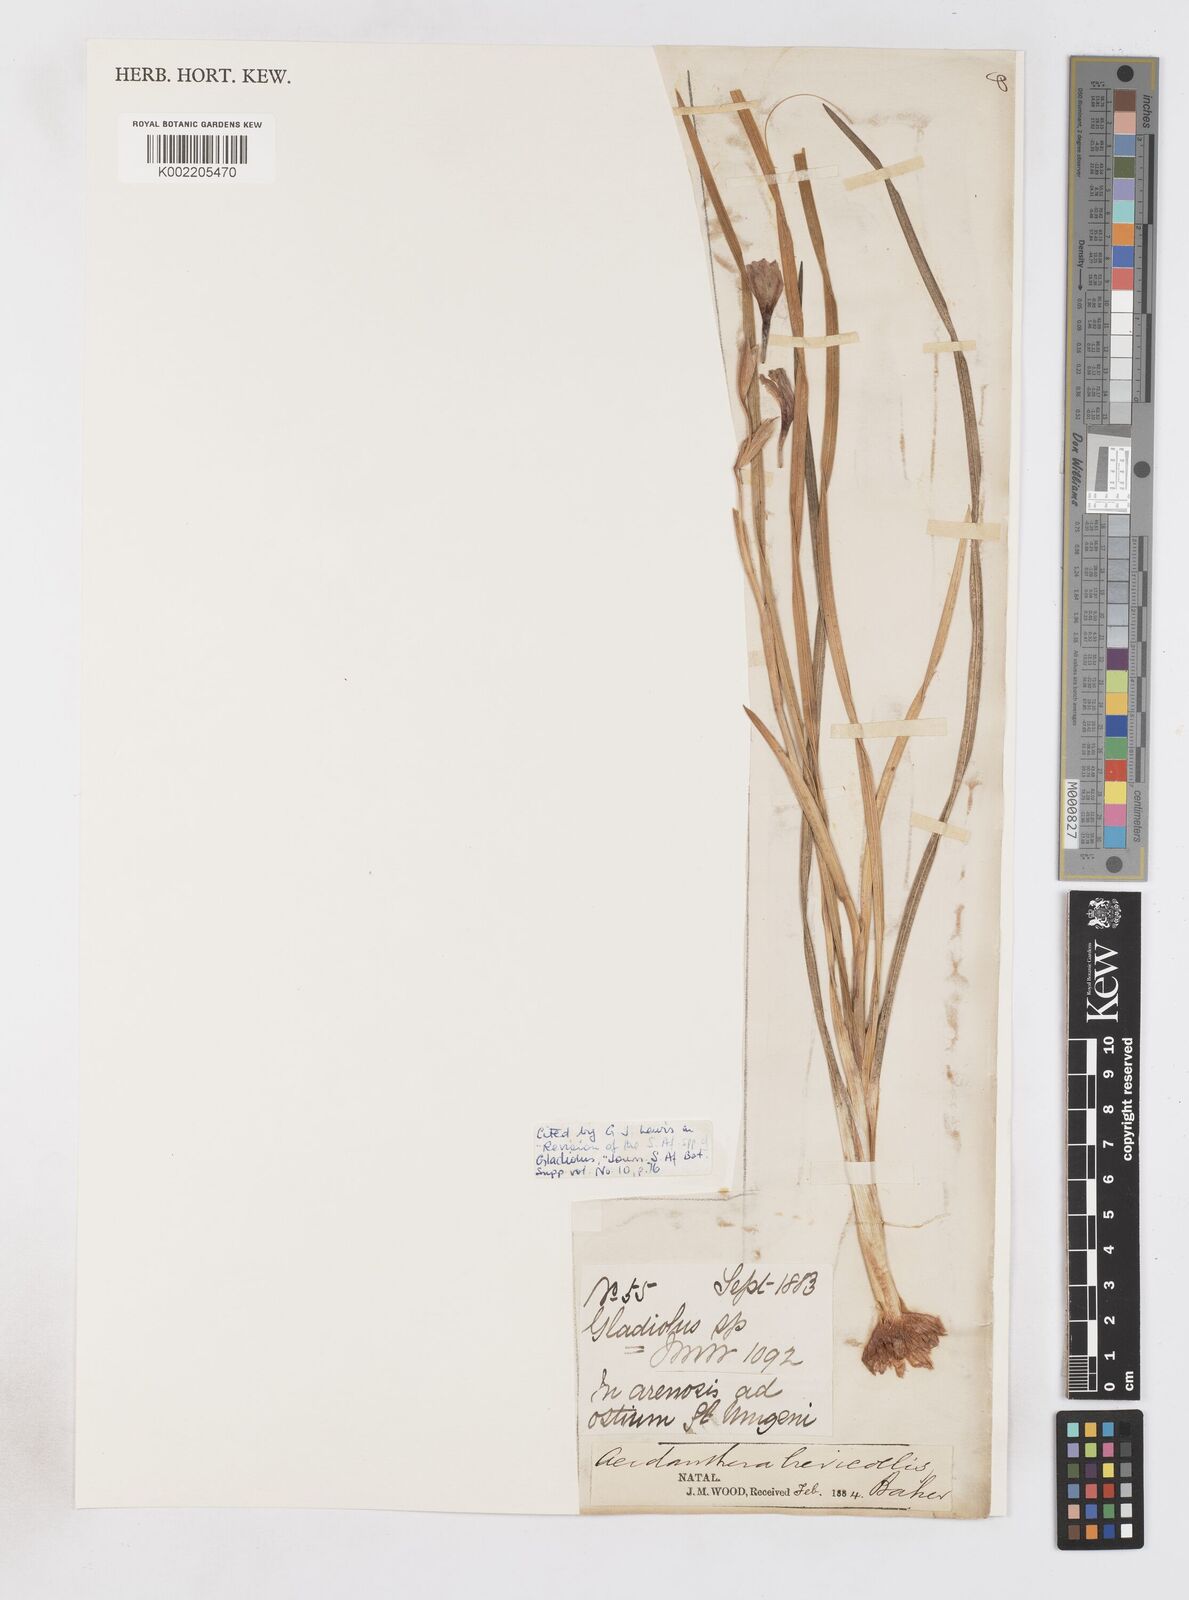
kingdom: Plantae
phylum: Tracheophyta
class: Liliopsida
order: Asparagales
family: Iridaceae
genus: Gladiolus
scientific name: Gladiolus gueinzii
